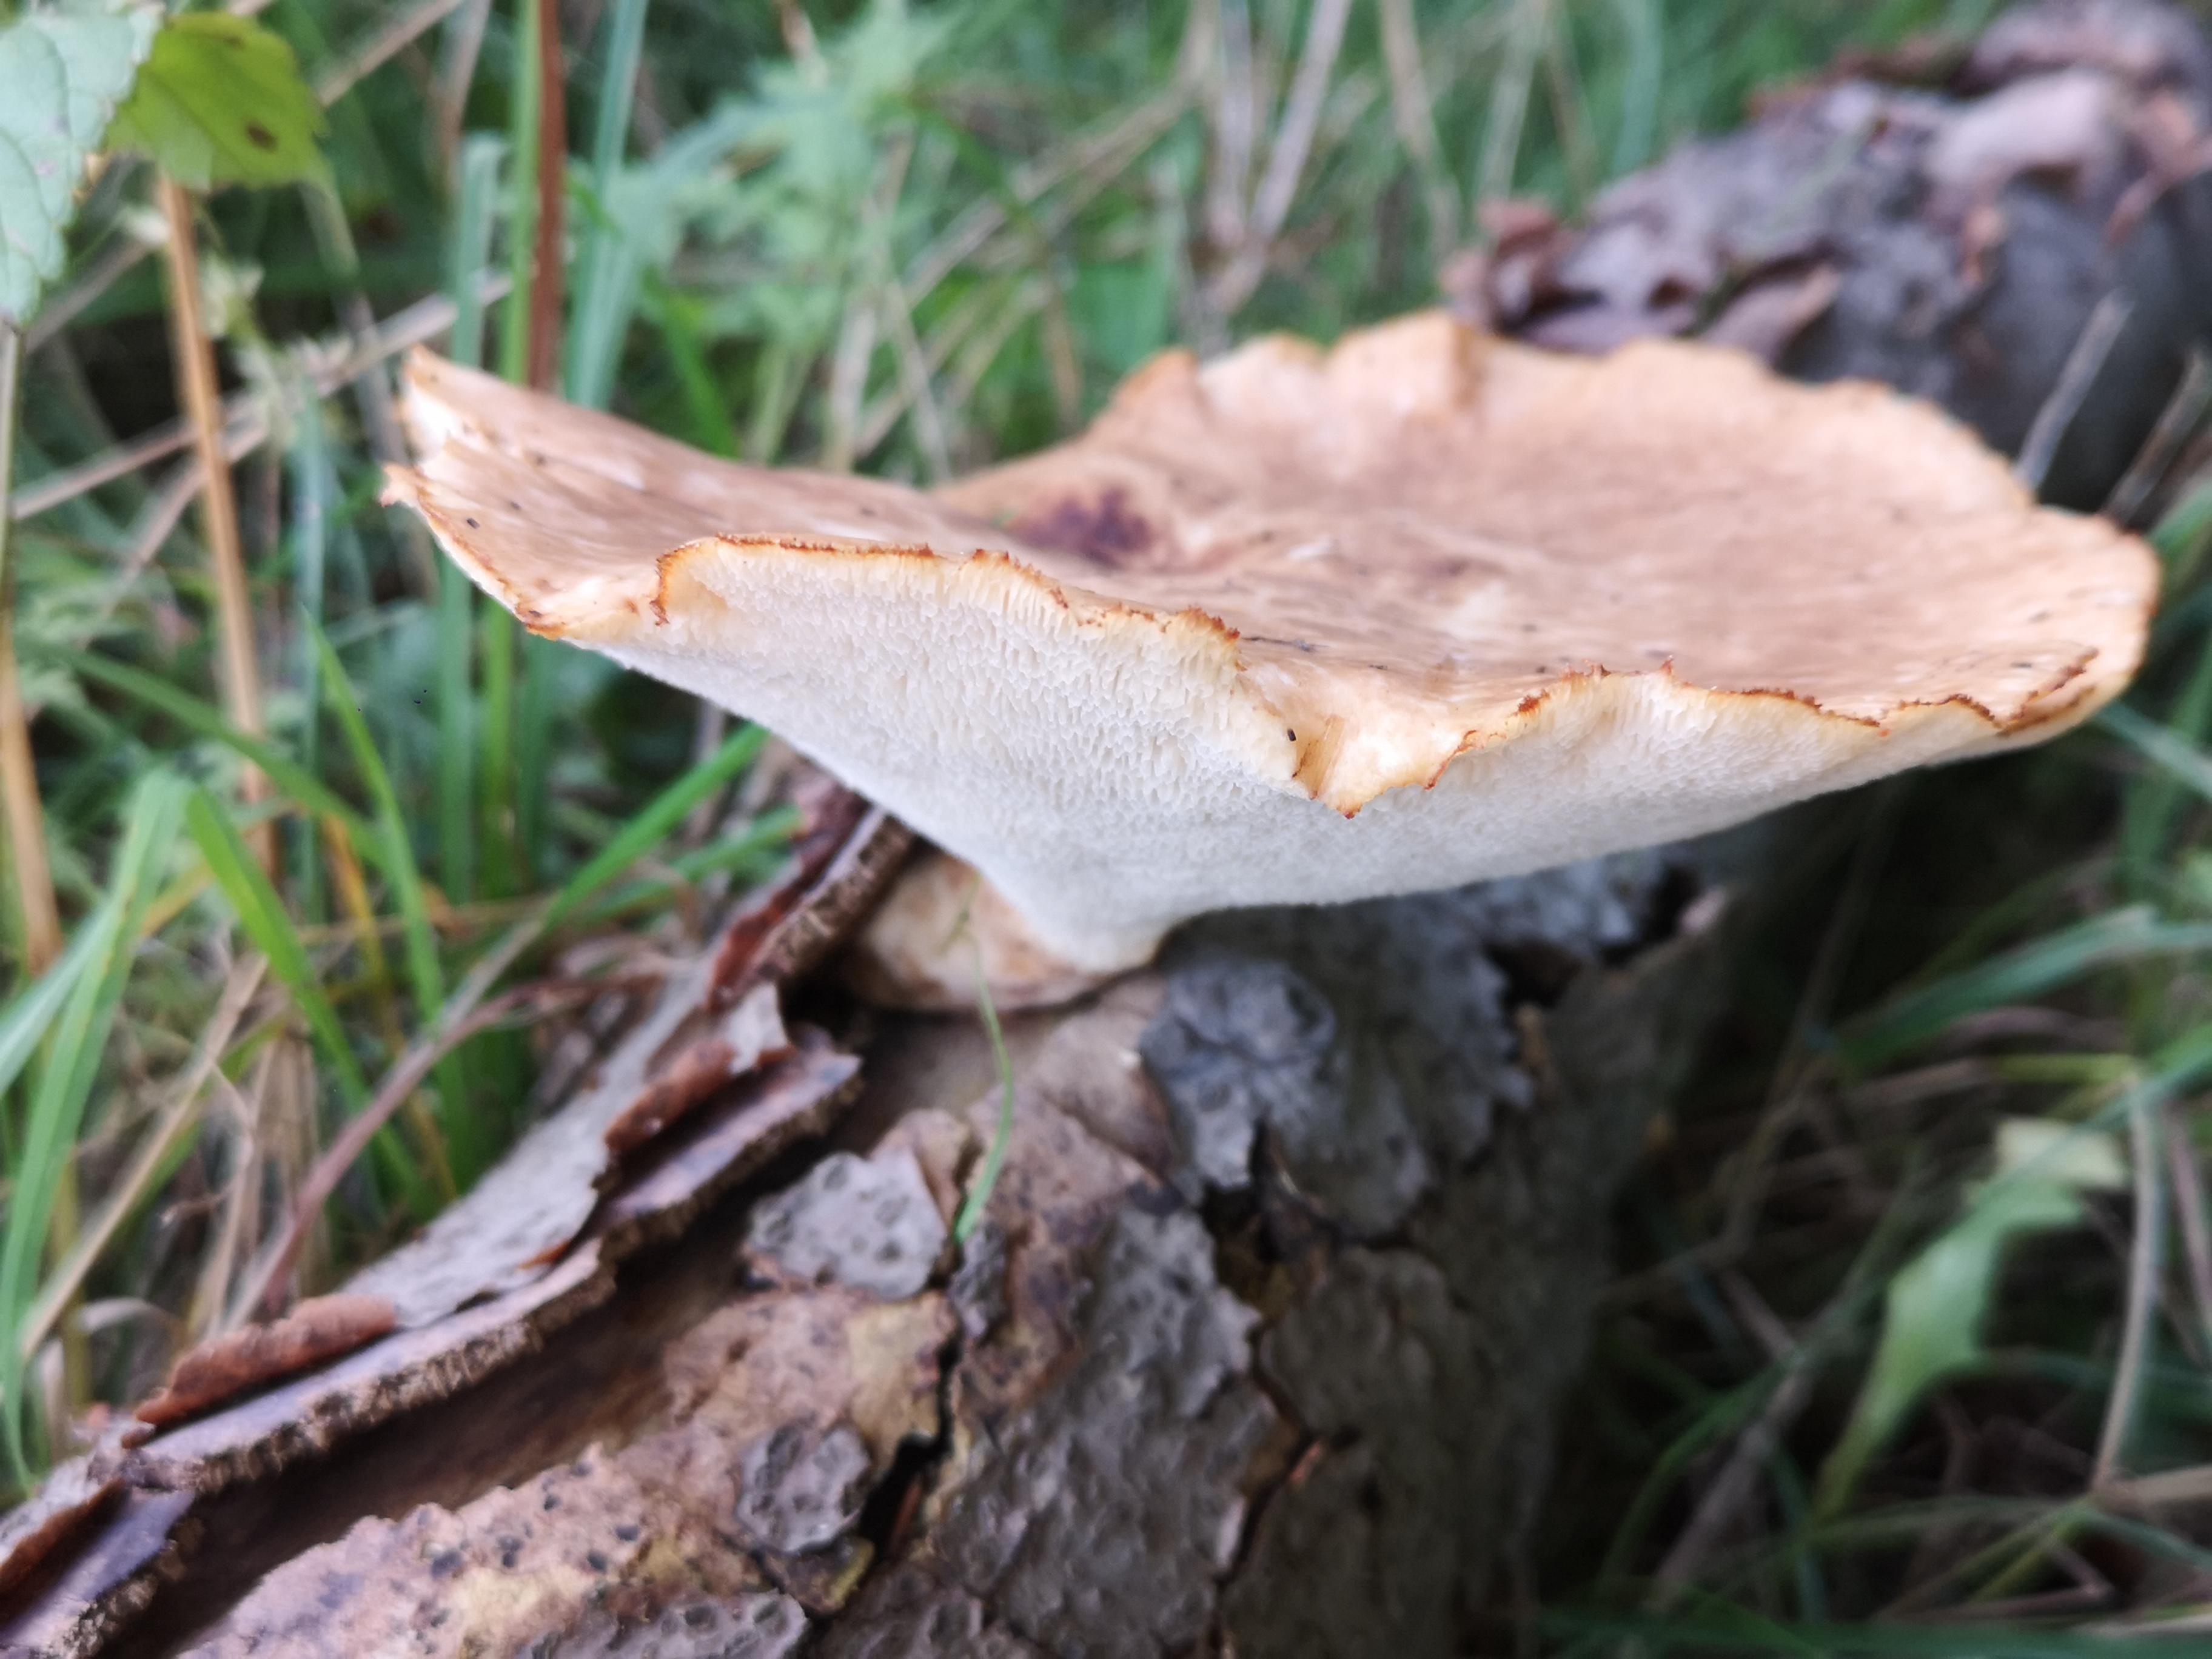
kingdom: Fungi
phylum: Basidiomycota
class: Agaricomycetes
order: Polyporales
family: Polyporaceae
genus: Polyporus
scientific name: Polyporus tuberaster
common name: knoldet stilkporesvamp
